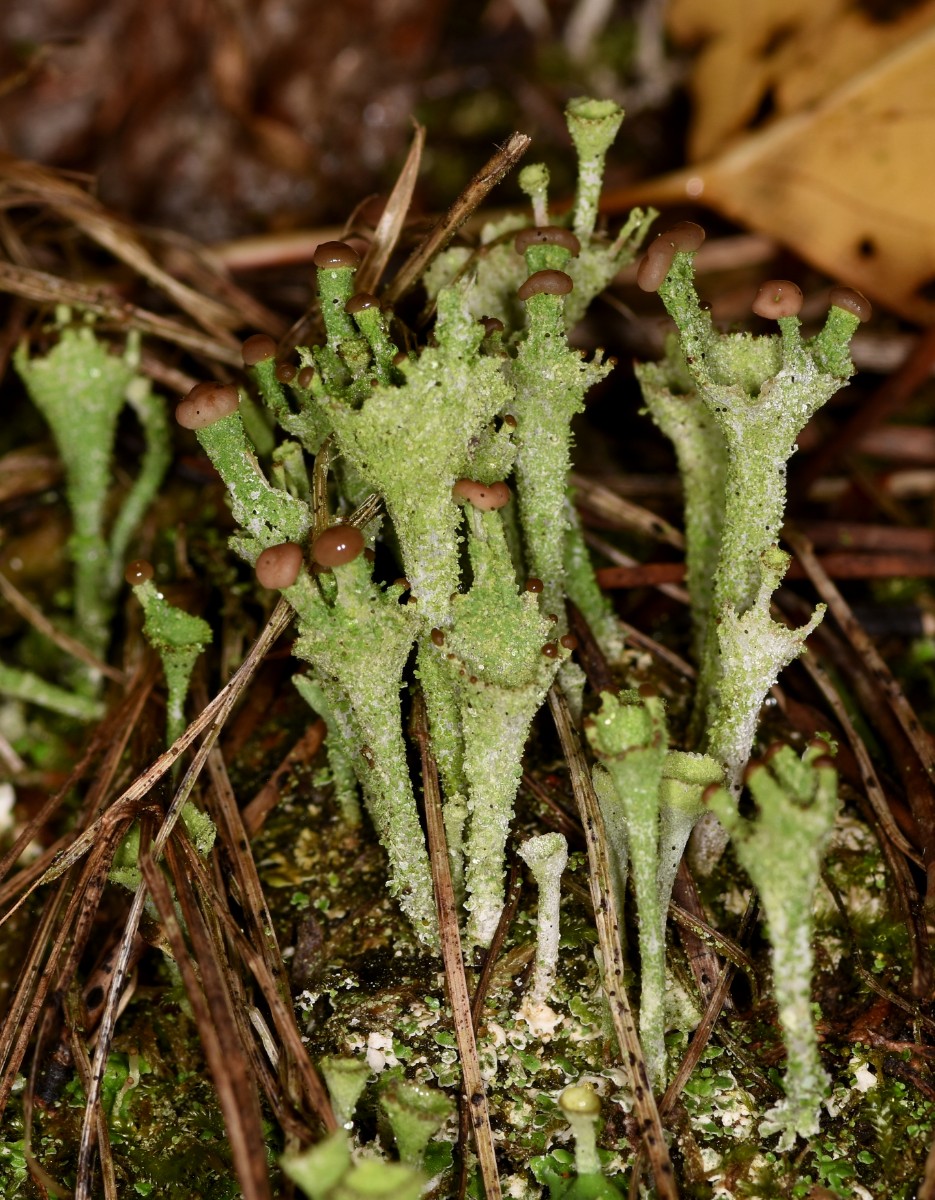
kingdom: Fungi
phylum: Ascomycota
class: Lecanoromycetes
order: Lecanorales
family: Cladoniaceae
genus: Cladonia
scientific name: Cladonia ramulosa
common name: kliddet bægerlav
